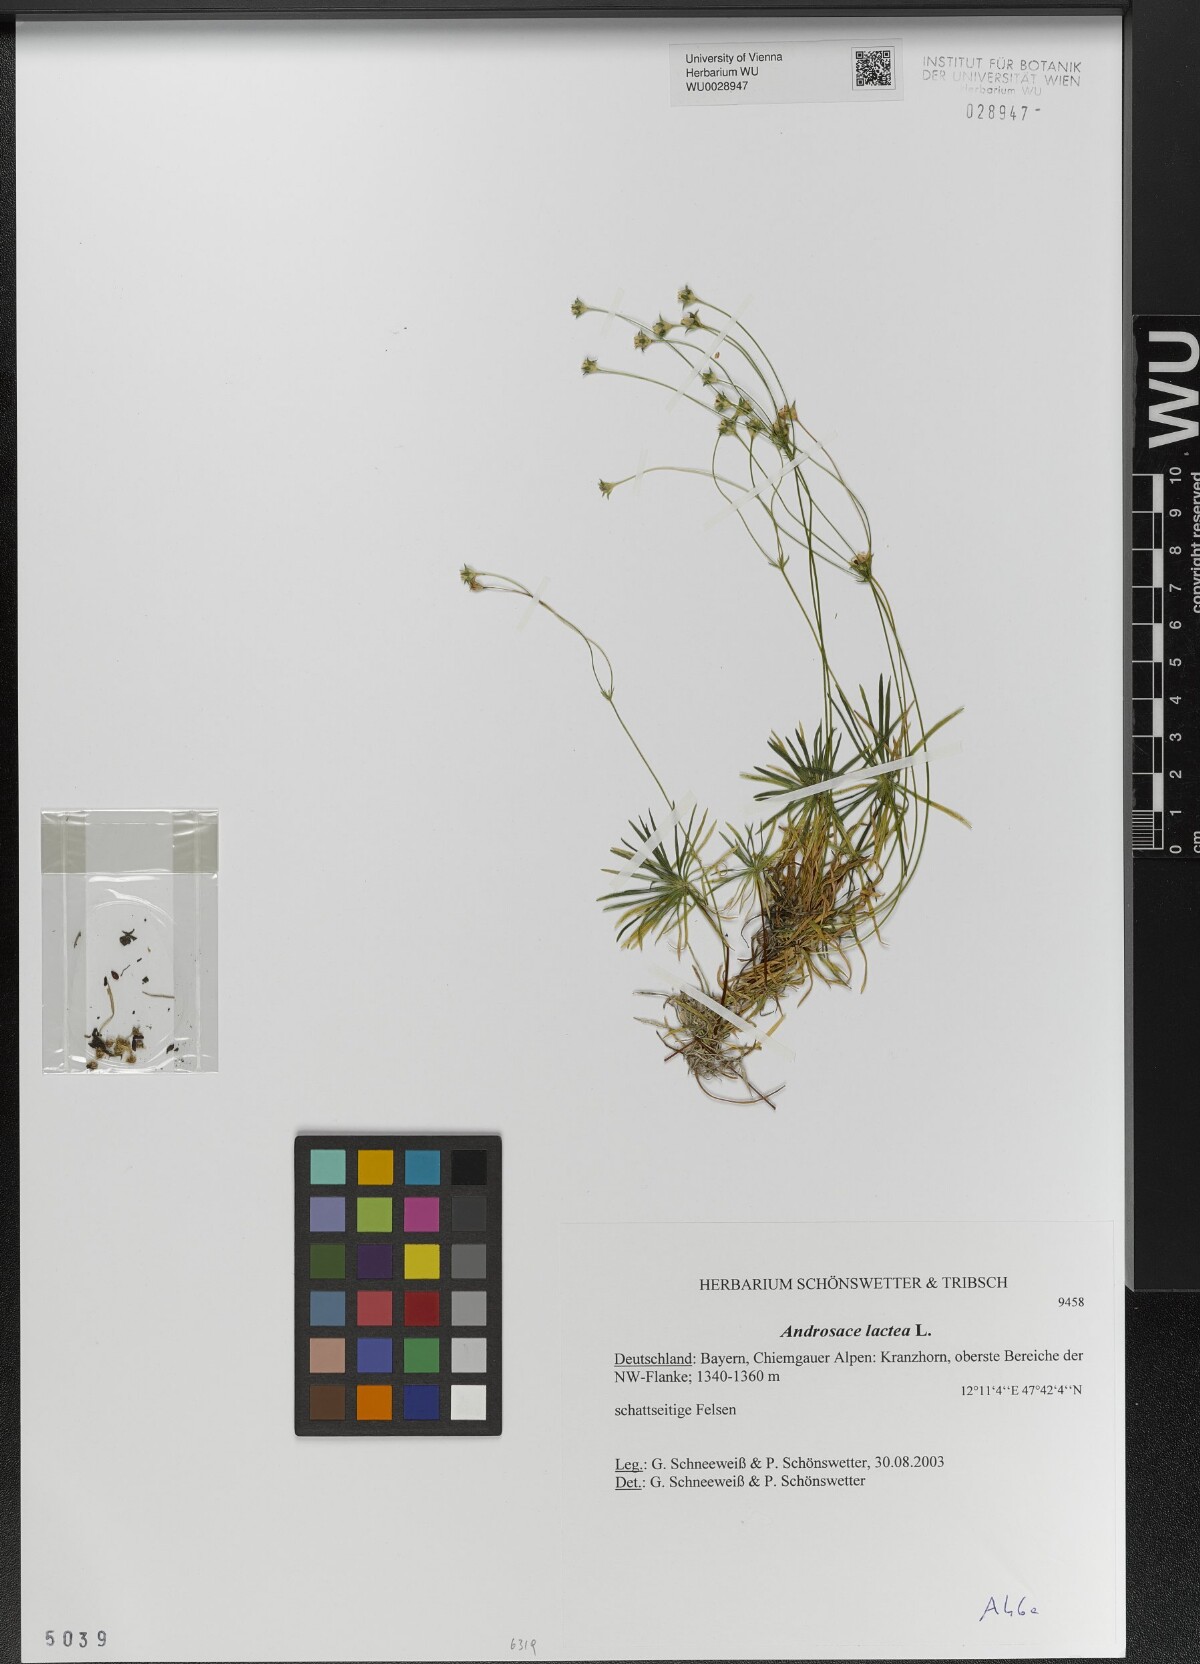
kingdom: Plantae
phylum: Tracheophyta
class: Magnoliopsida
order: Ericales
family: Primulaceae
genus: Androsace
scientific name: Androsace lactea
